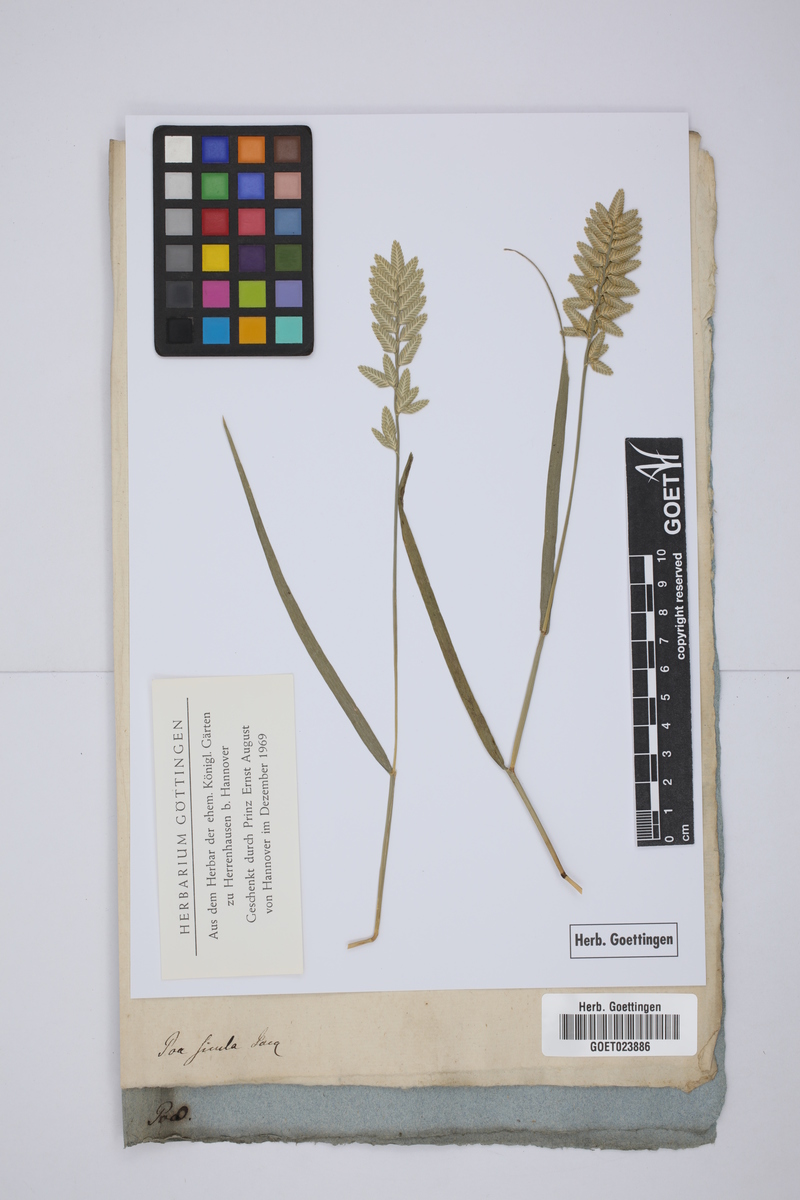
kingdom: Plantae
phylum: Tracheophyta
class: Liliopsida
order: Poales
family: Poaceae
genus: Desmazeria
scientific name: Desmazeria sicula
